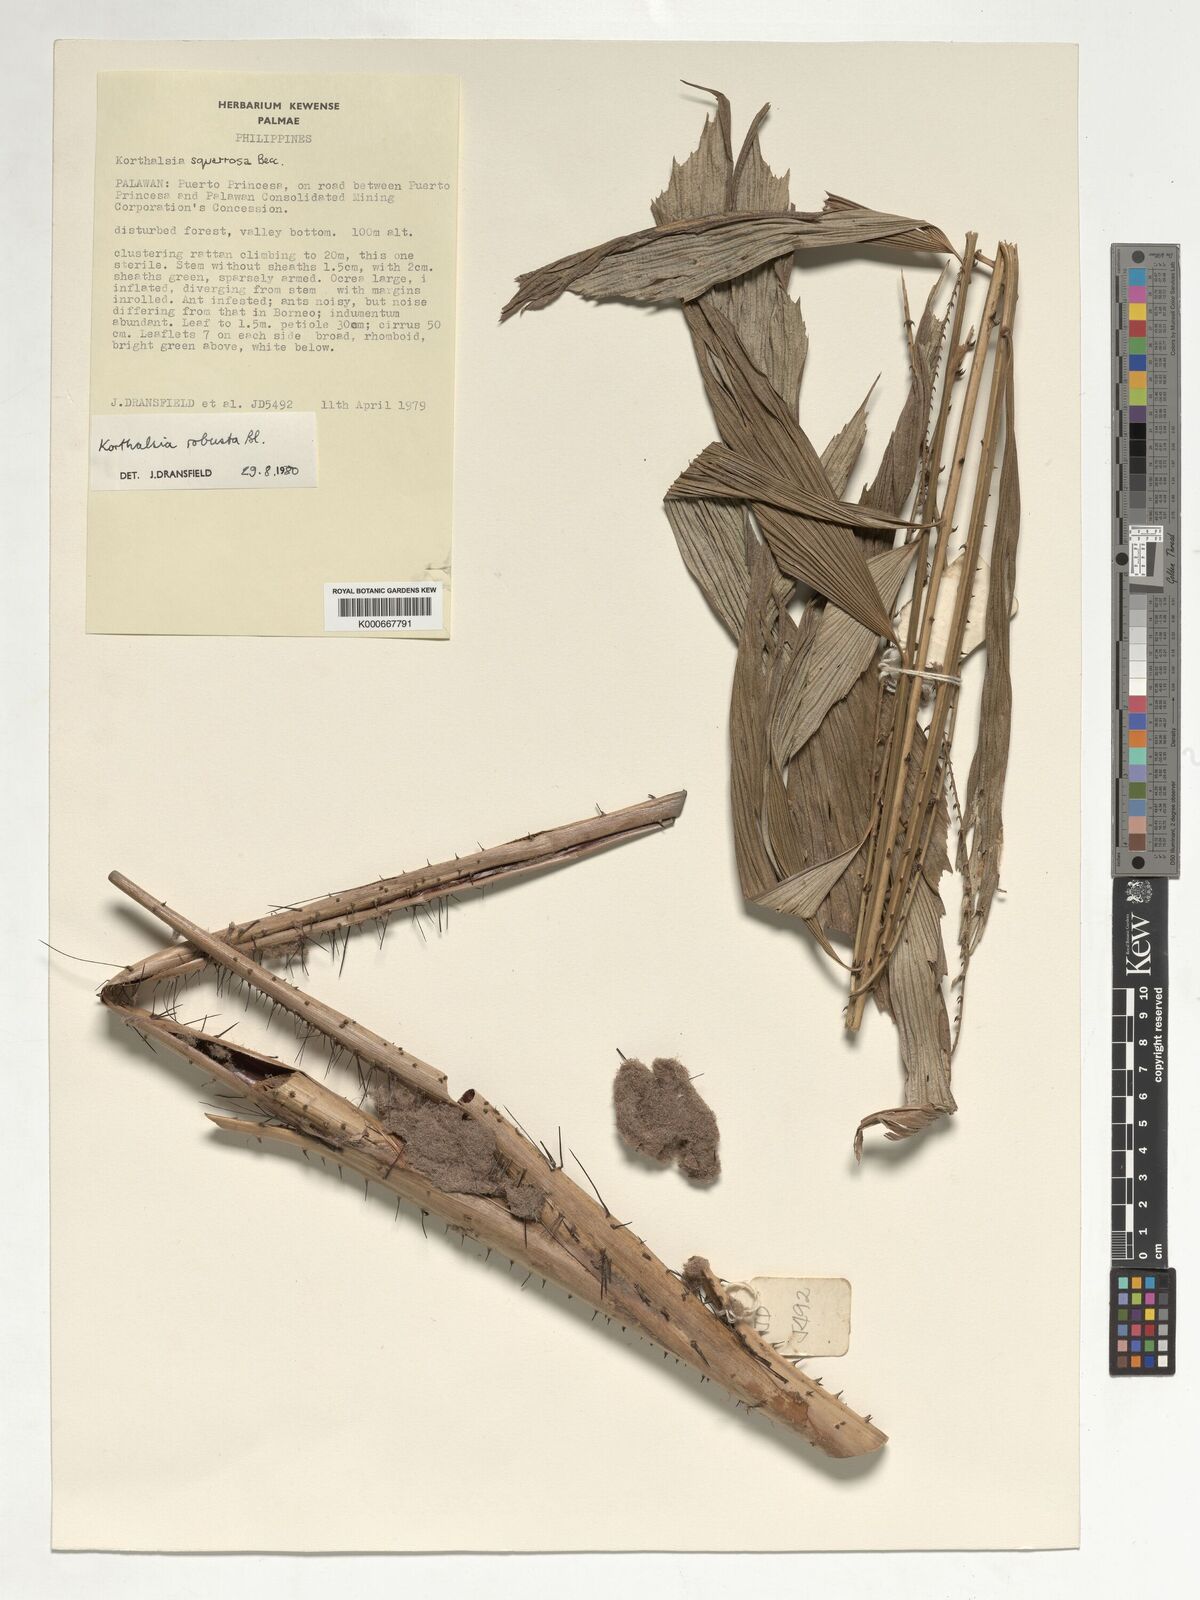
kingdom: Plantae
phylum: Tracheophyta
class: Liliopsida
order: Arecales
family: Arecaceae
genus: Korthalsia
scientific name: Korthalsia robusta
